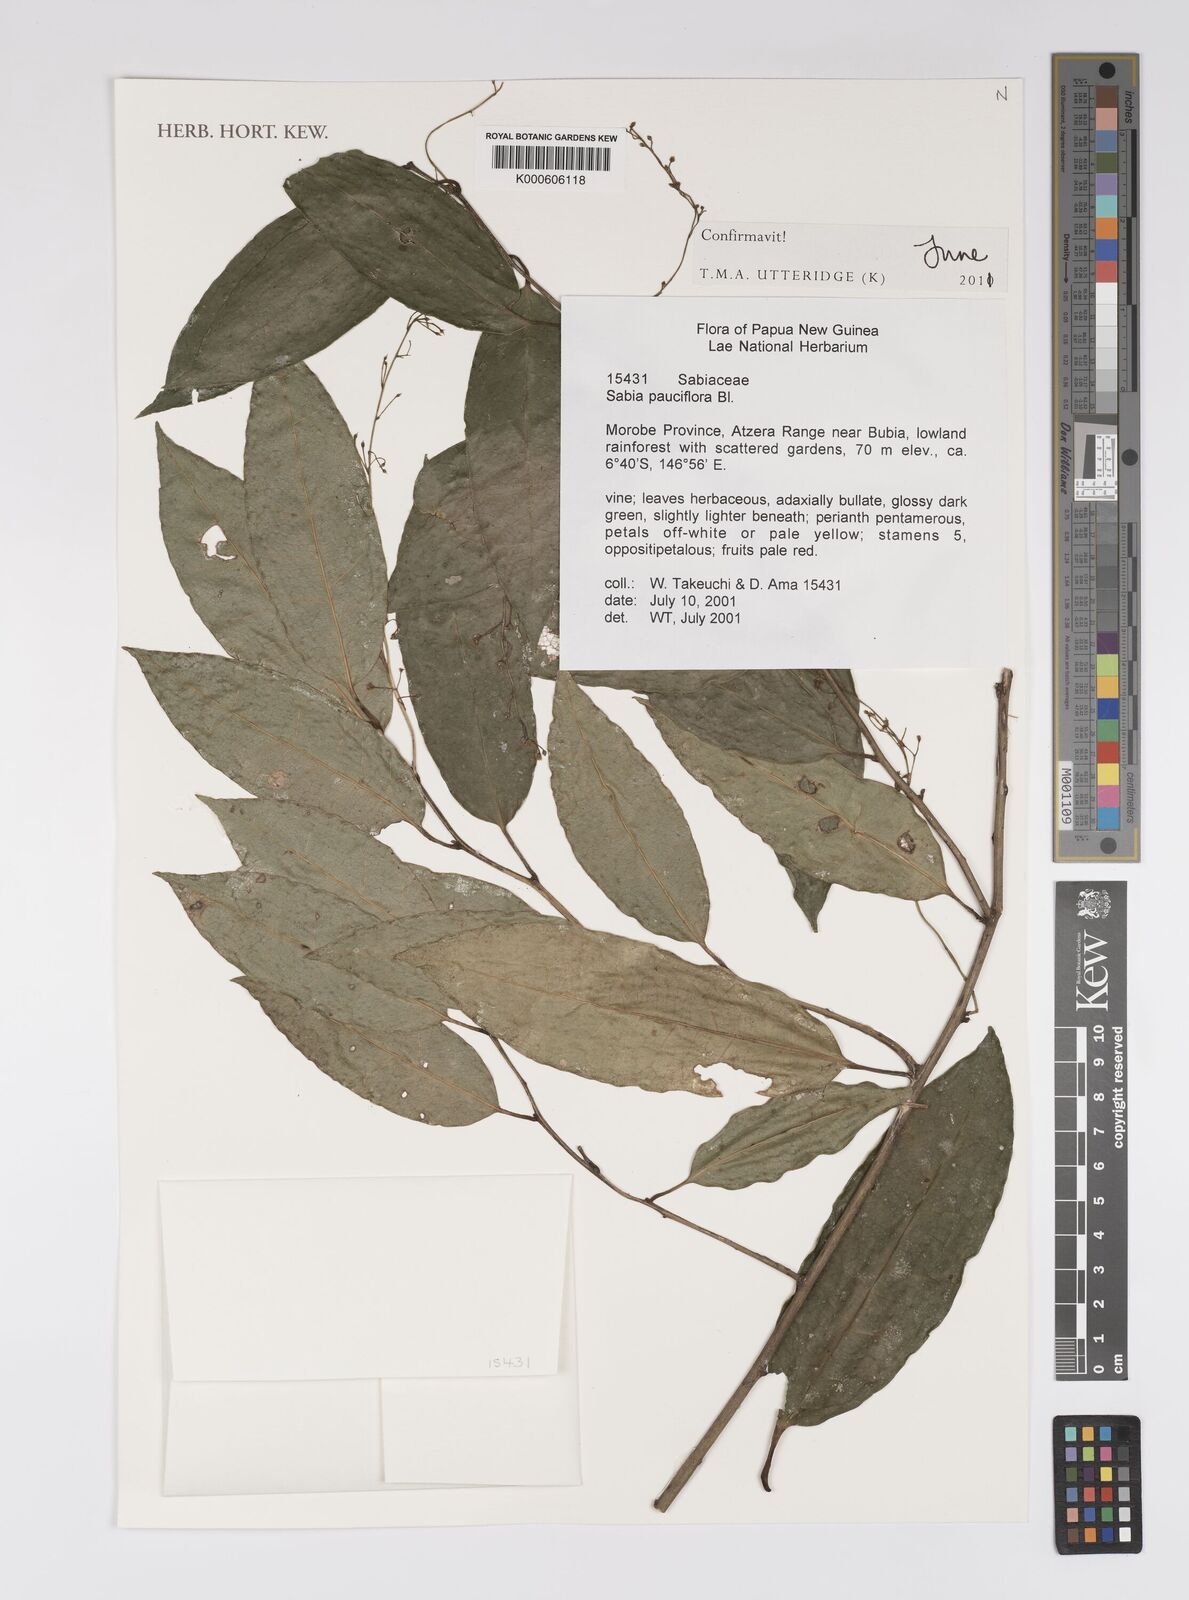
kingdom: Plantae
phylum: Tracheophyta
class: Magnoliopsida
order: Proteales
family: Sabiaceae
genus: Sabia
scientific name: Sabia pauciflora
